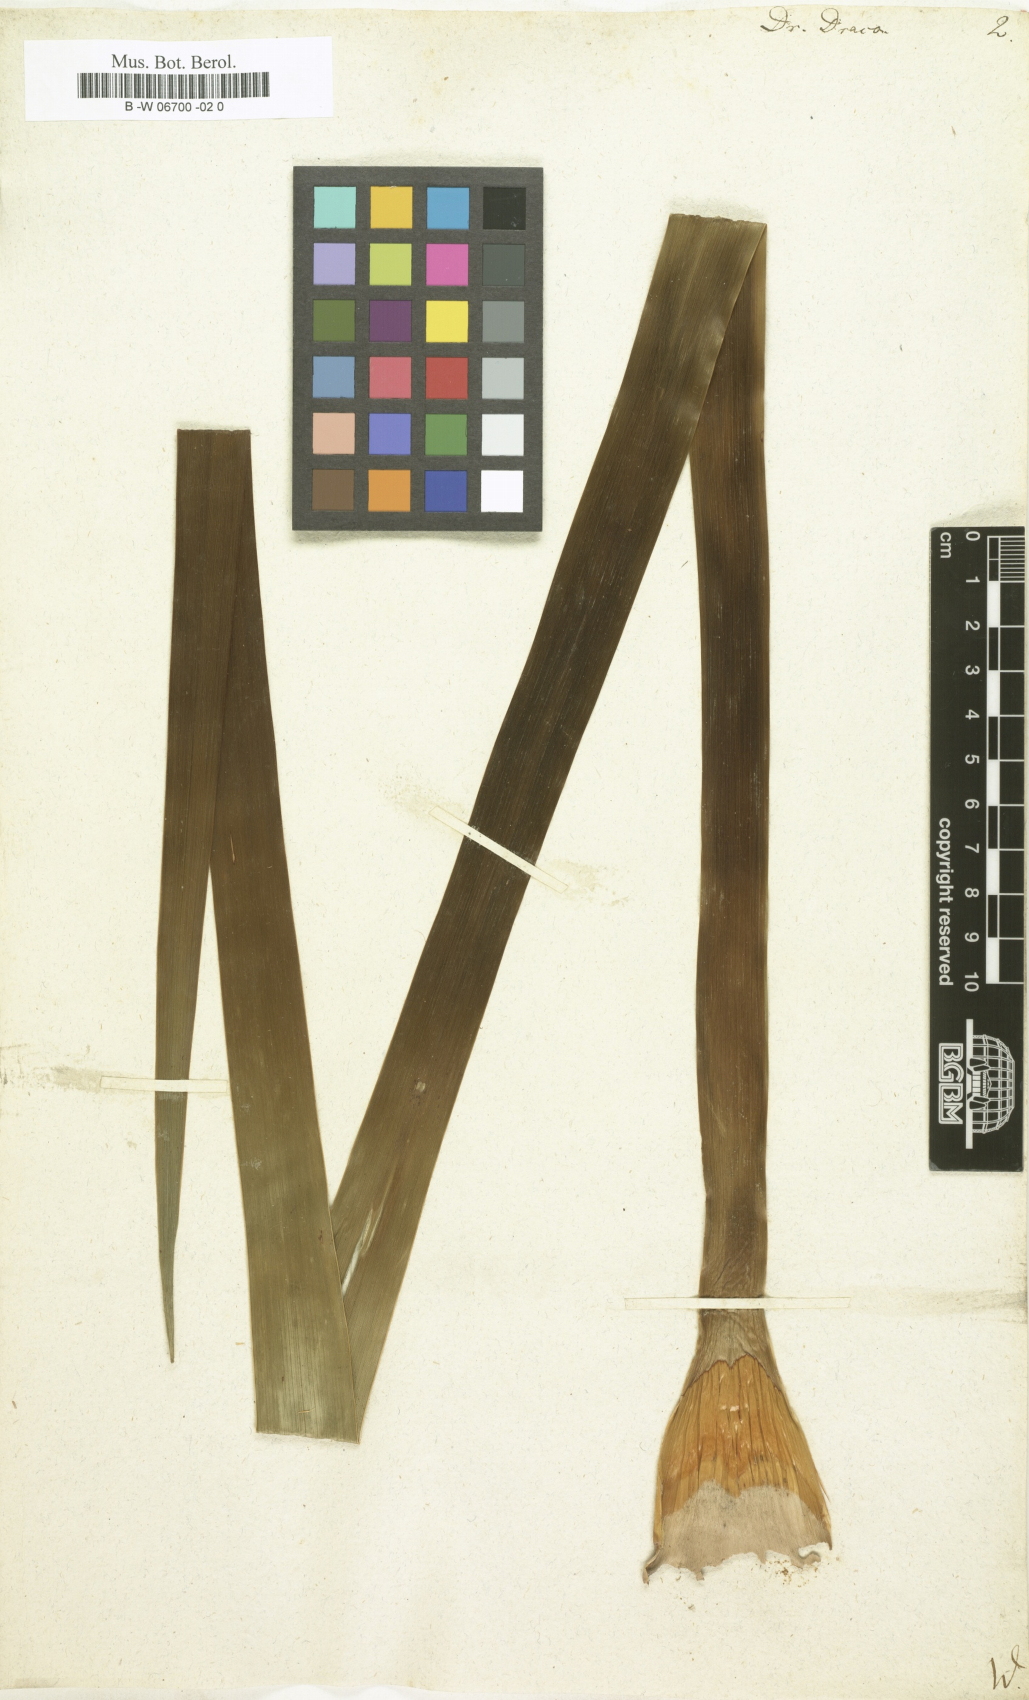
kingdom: Plantae
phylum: Tracheophyta
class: Liliopsida
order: Asparagales
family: Asparagaceae
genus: Dracaena
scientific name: Dracaena draco
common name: Canary island dragon tree
